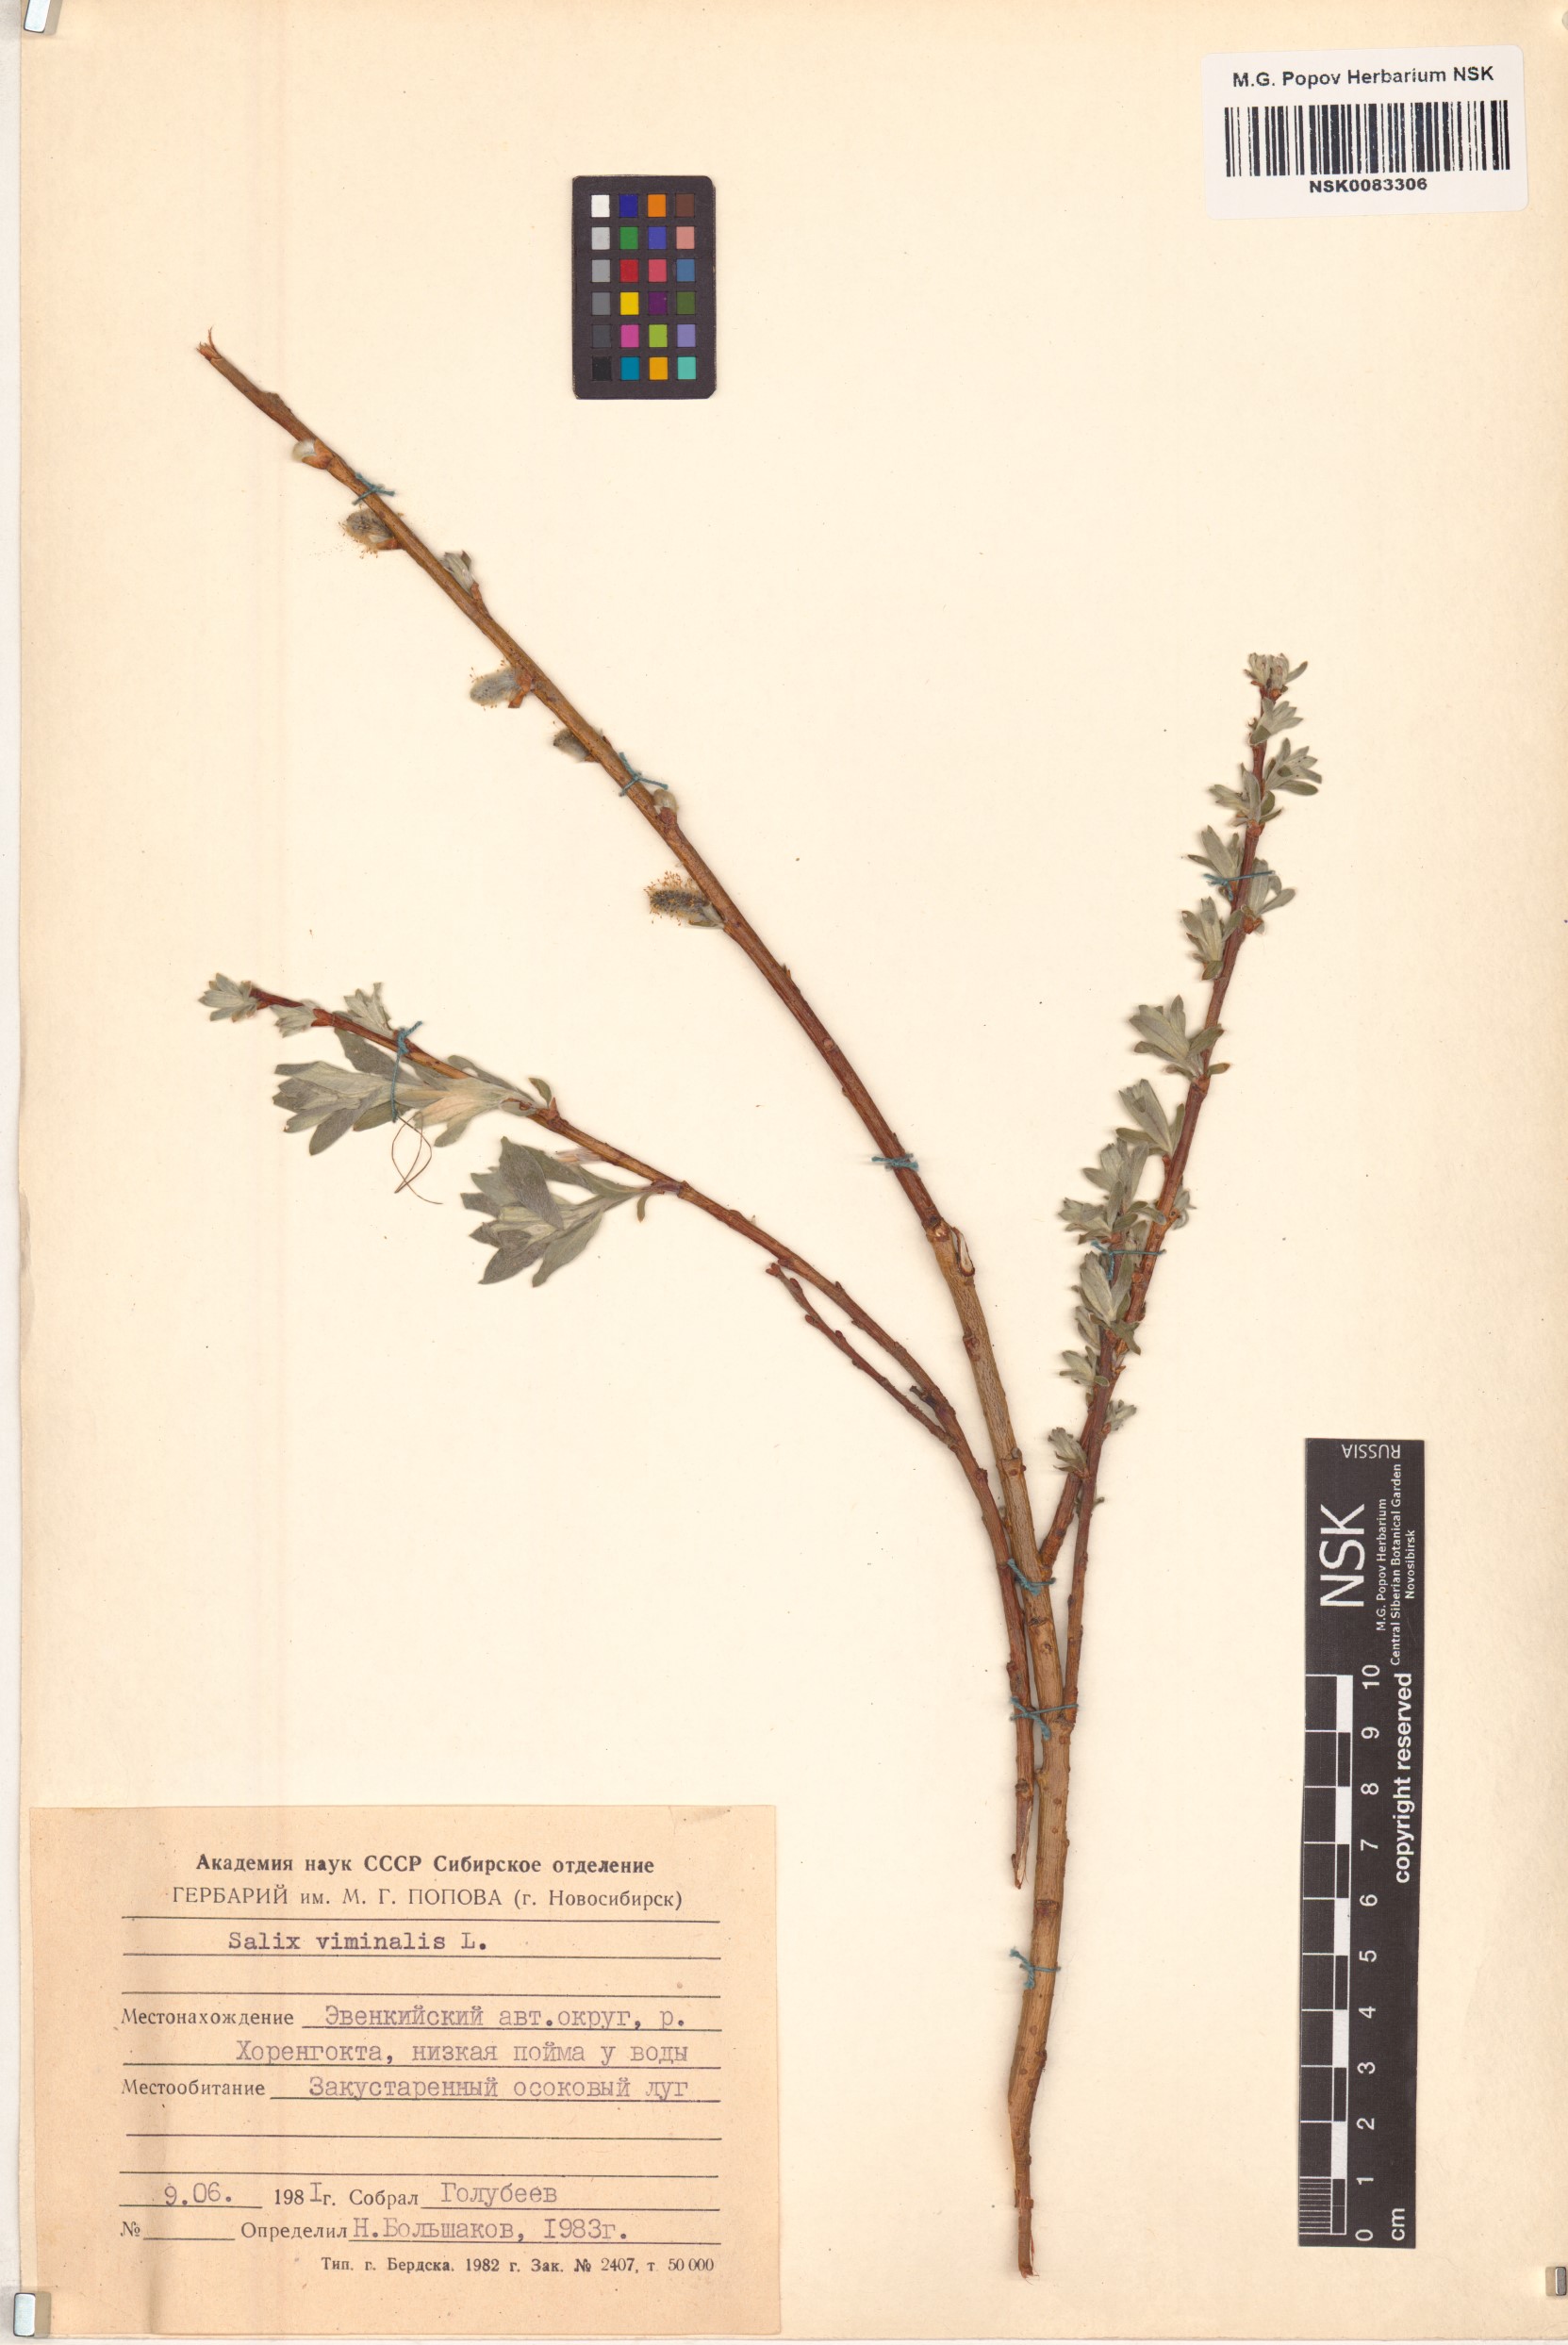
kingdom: Plantae
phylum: Tracheophyta
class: Magnoliopsida
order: Malpighiales
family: Salicaceae
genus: Salix
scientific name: Salix viminalis
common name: Osier
